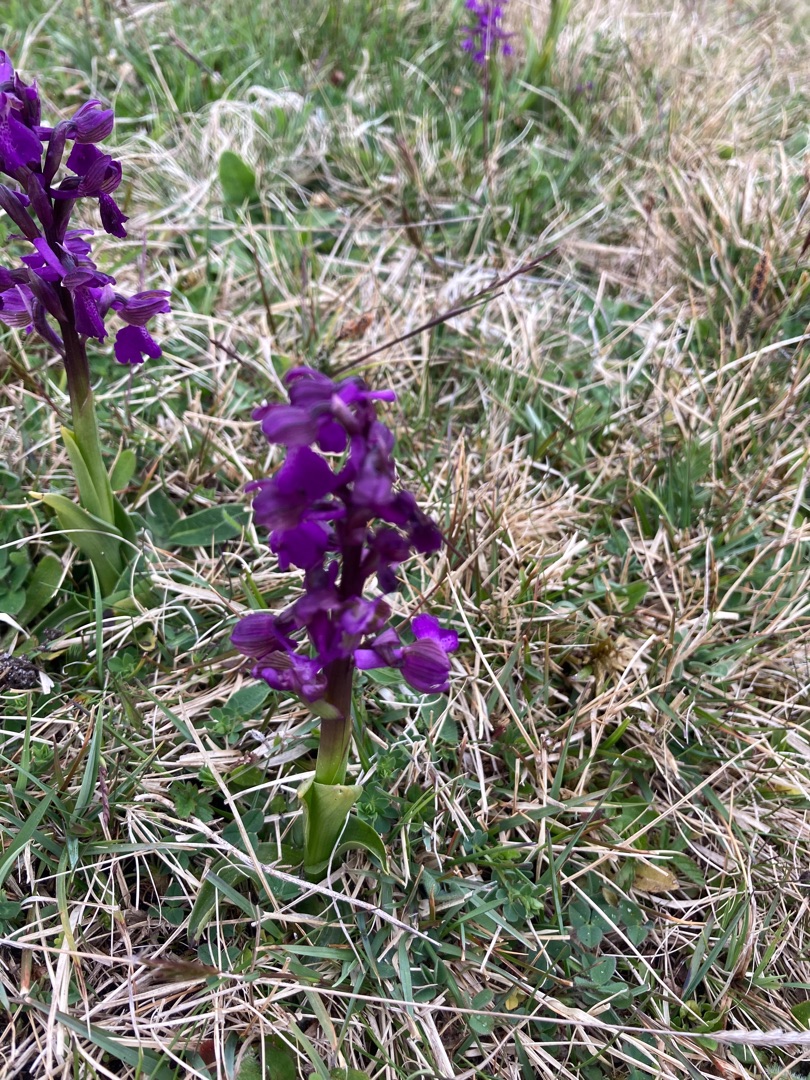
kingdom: Plantae
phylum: Tracheophyta
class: Liliopsida
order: Asparagales
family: Orchidaceae
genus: Anacamptis
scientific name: Anacamptis morio
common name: Salepgøgeurt
